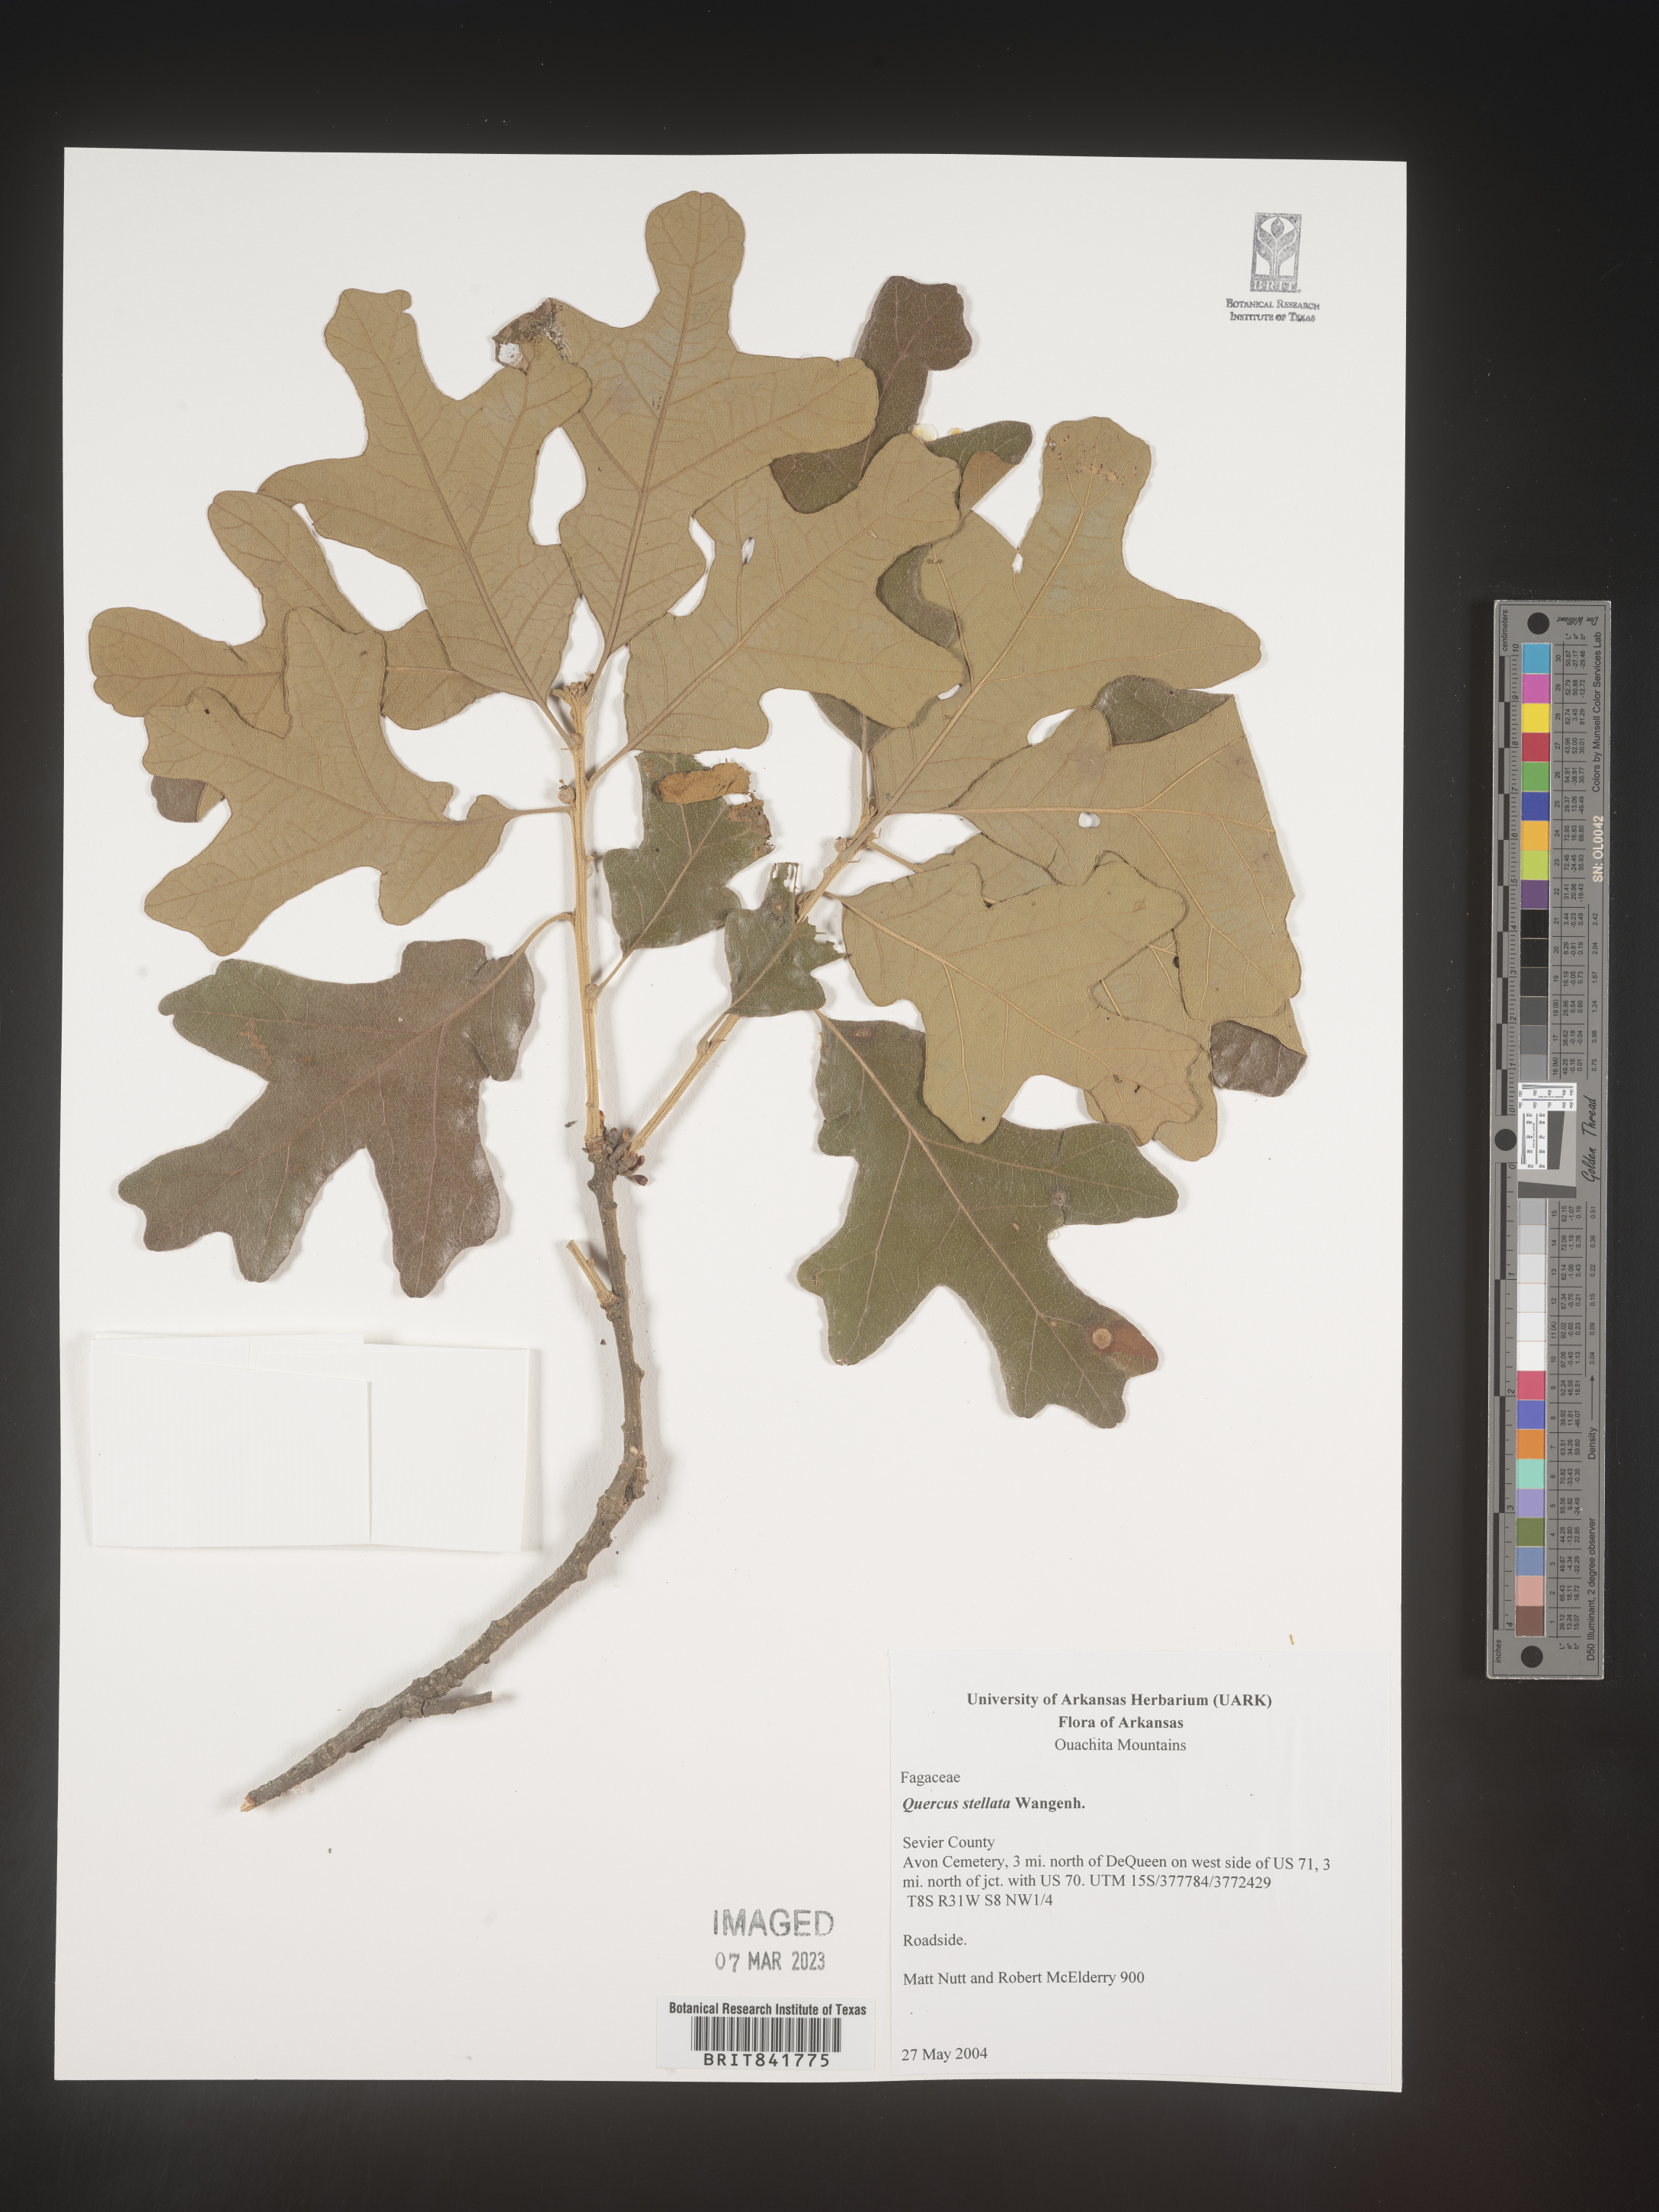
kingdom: Plantae
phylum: Tracheophyta
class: Magnoliopsida
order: Fagales
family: Fagaceae
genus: Quercus
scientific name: Quercus stellata
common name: Post oak
